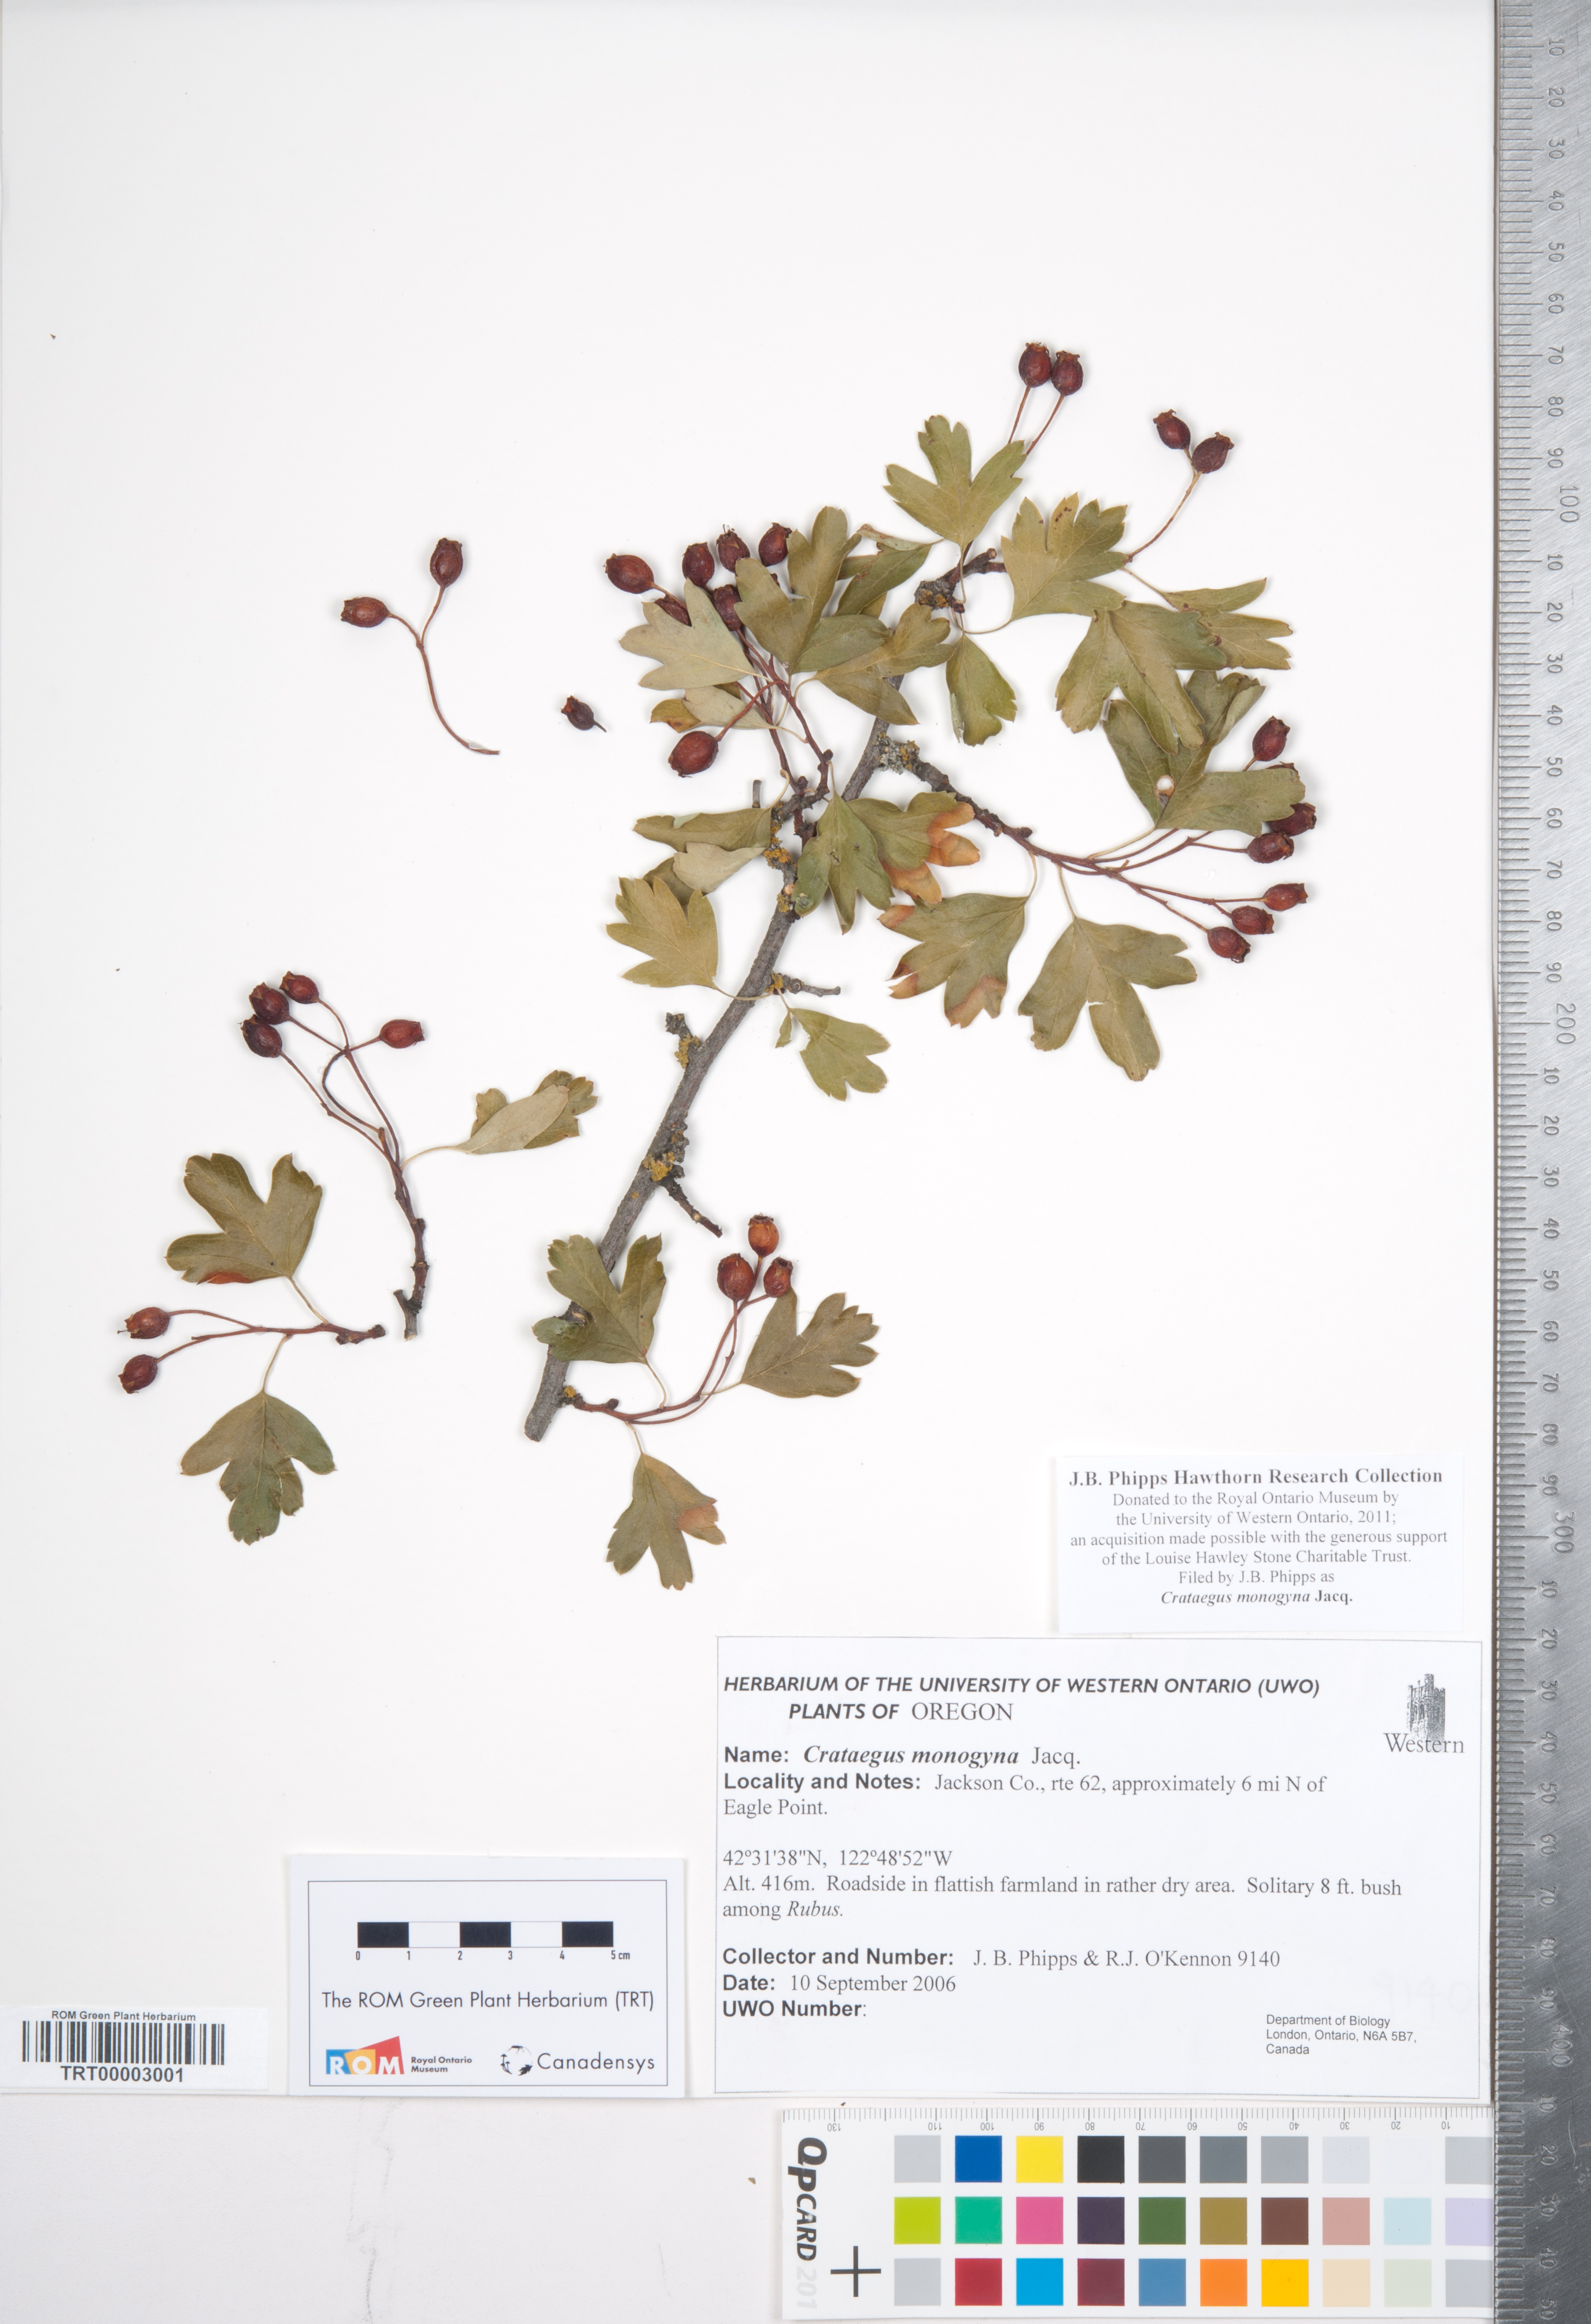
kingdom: Plantae
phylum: Tracheophyta
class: Magnoliopsida
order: Rosales
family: Rosaceae
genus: Crataegus
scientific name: Crataegus monogyna
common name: Hawthorn
